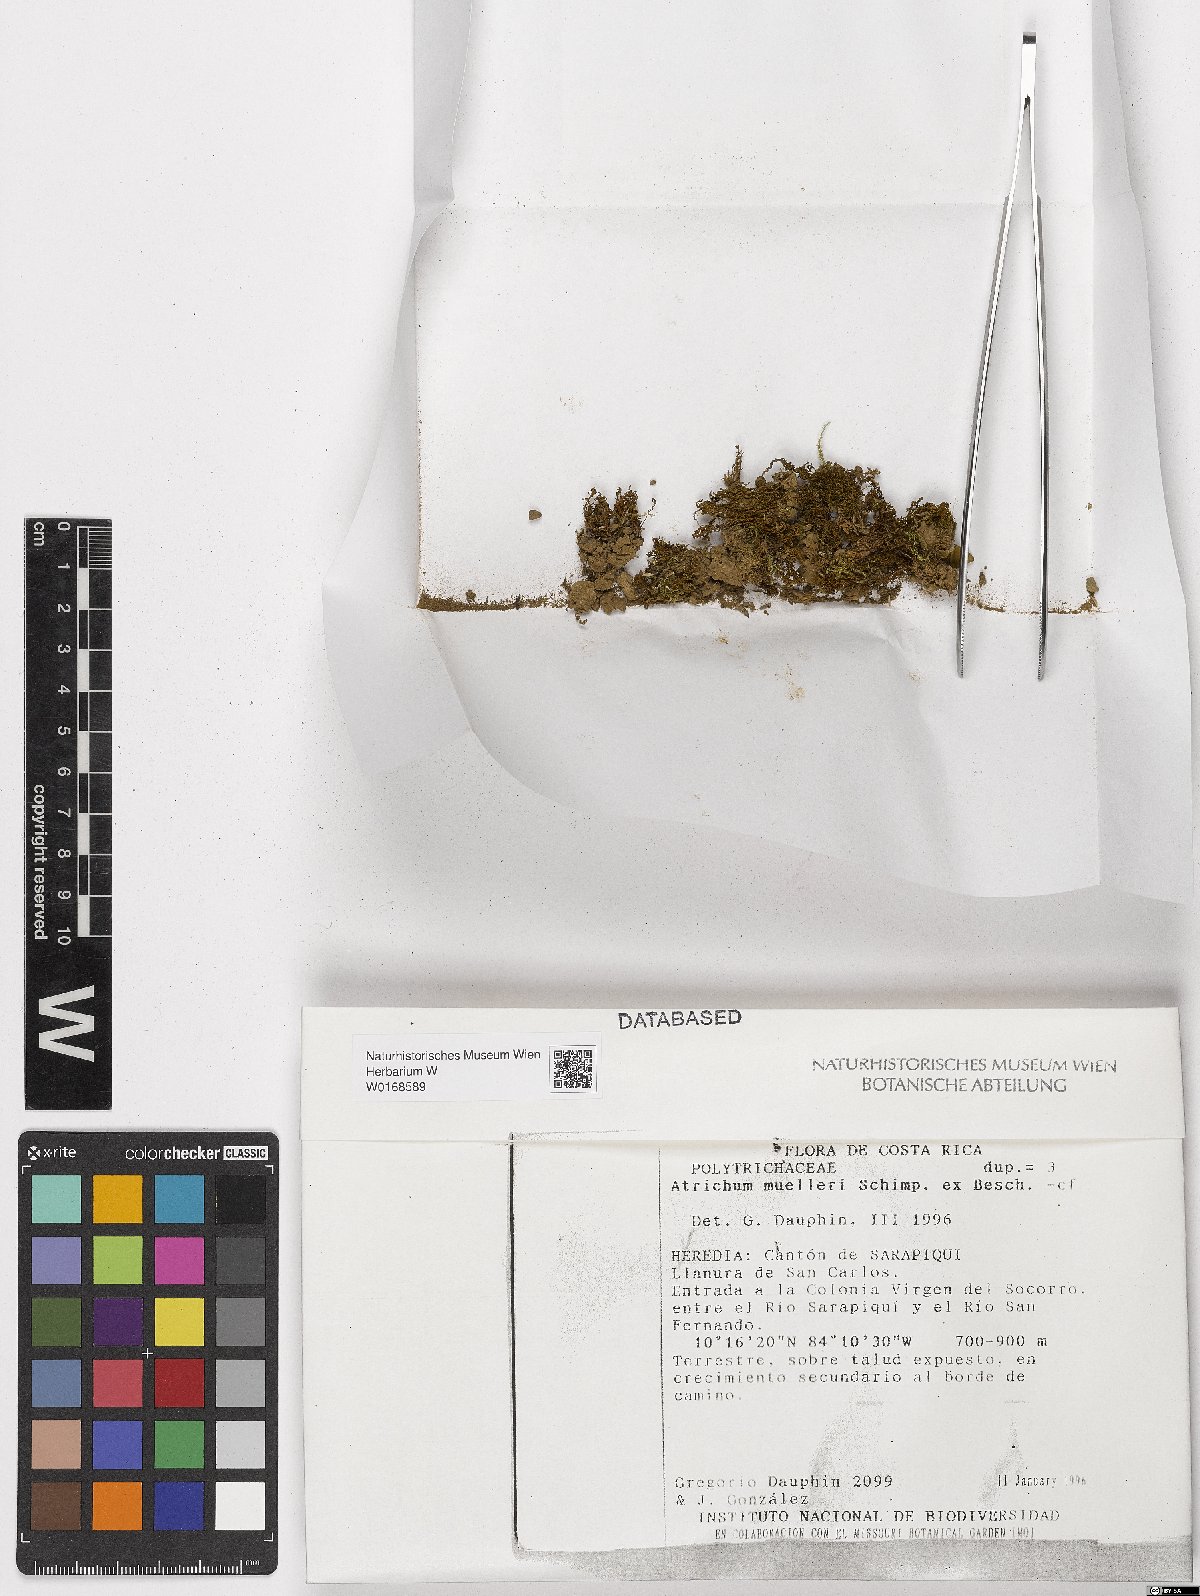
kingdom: Plantae
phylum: Bryophyta
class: Polytrichopsida
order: Polytrichales
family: Polytrichaceae
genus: Atrichum
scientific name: Atrichum muelleri
